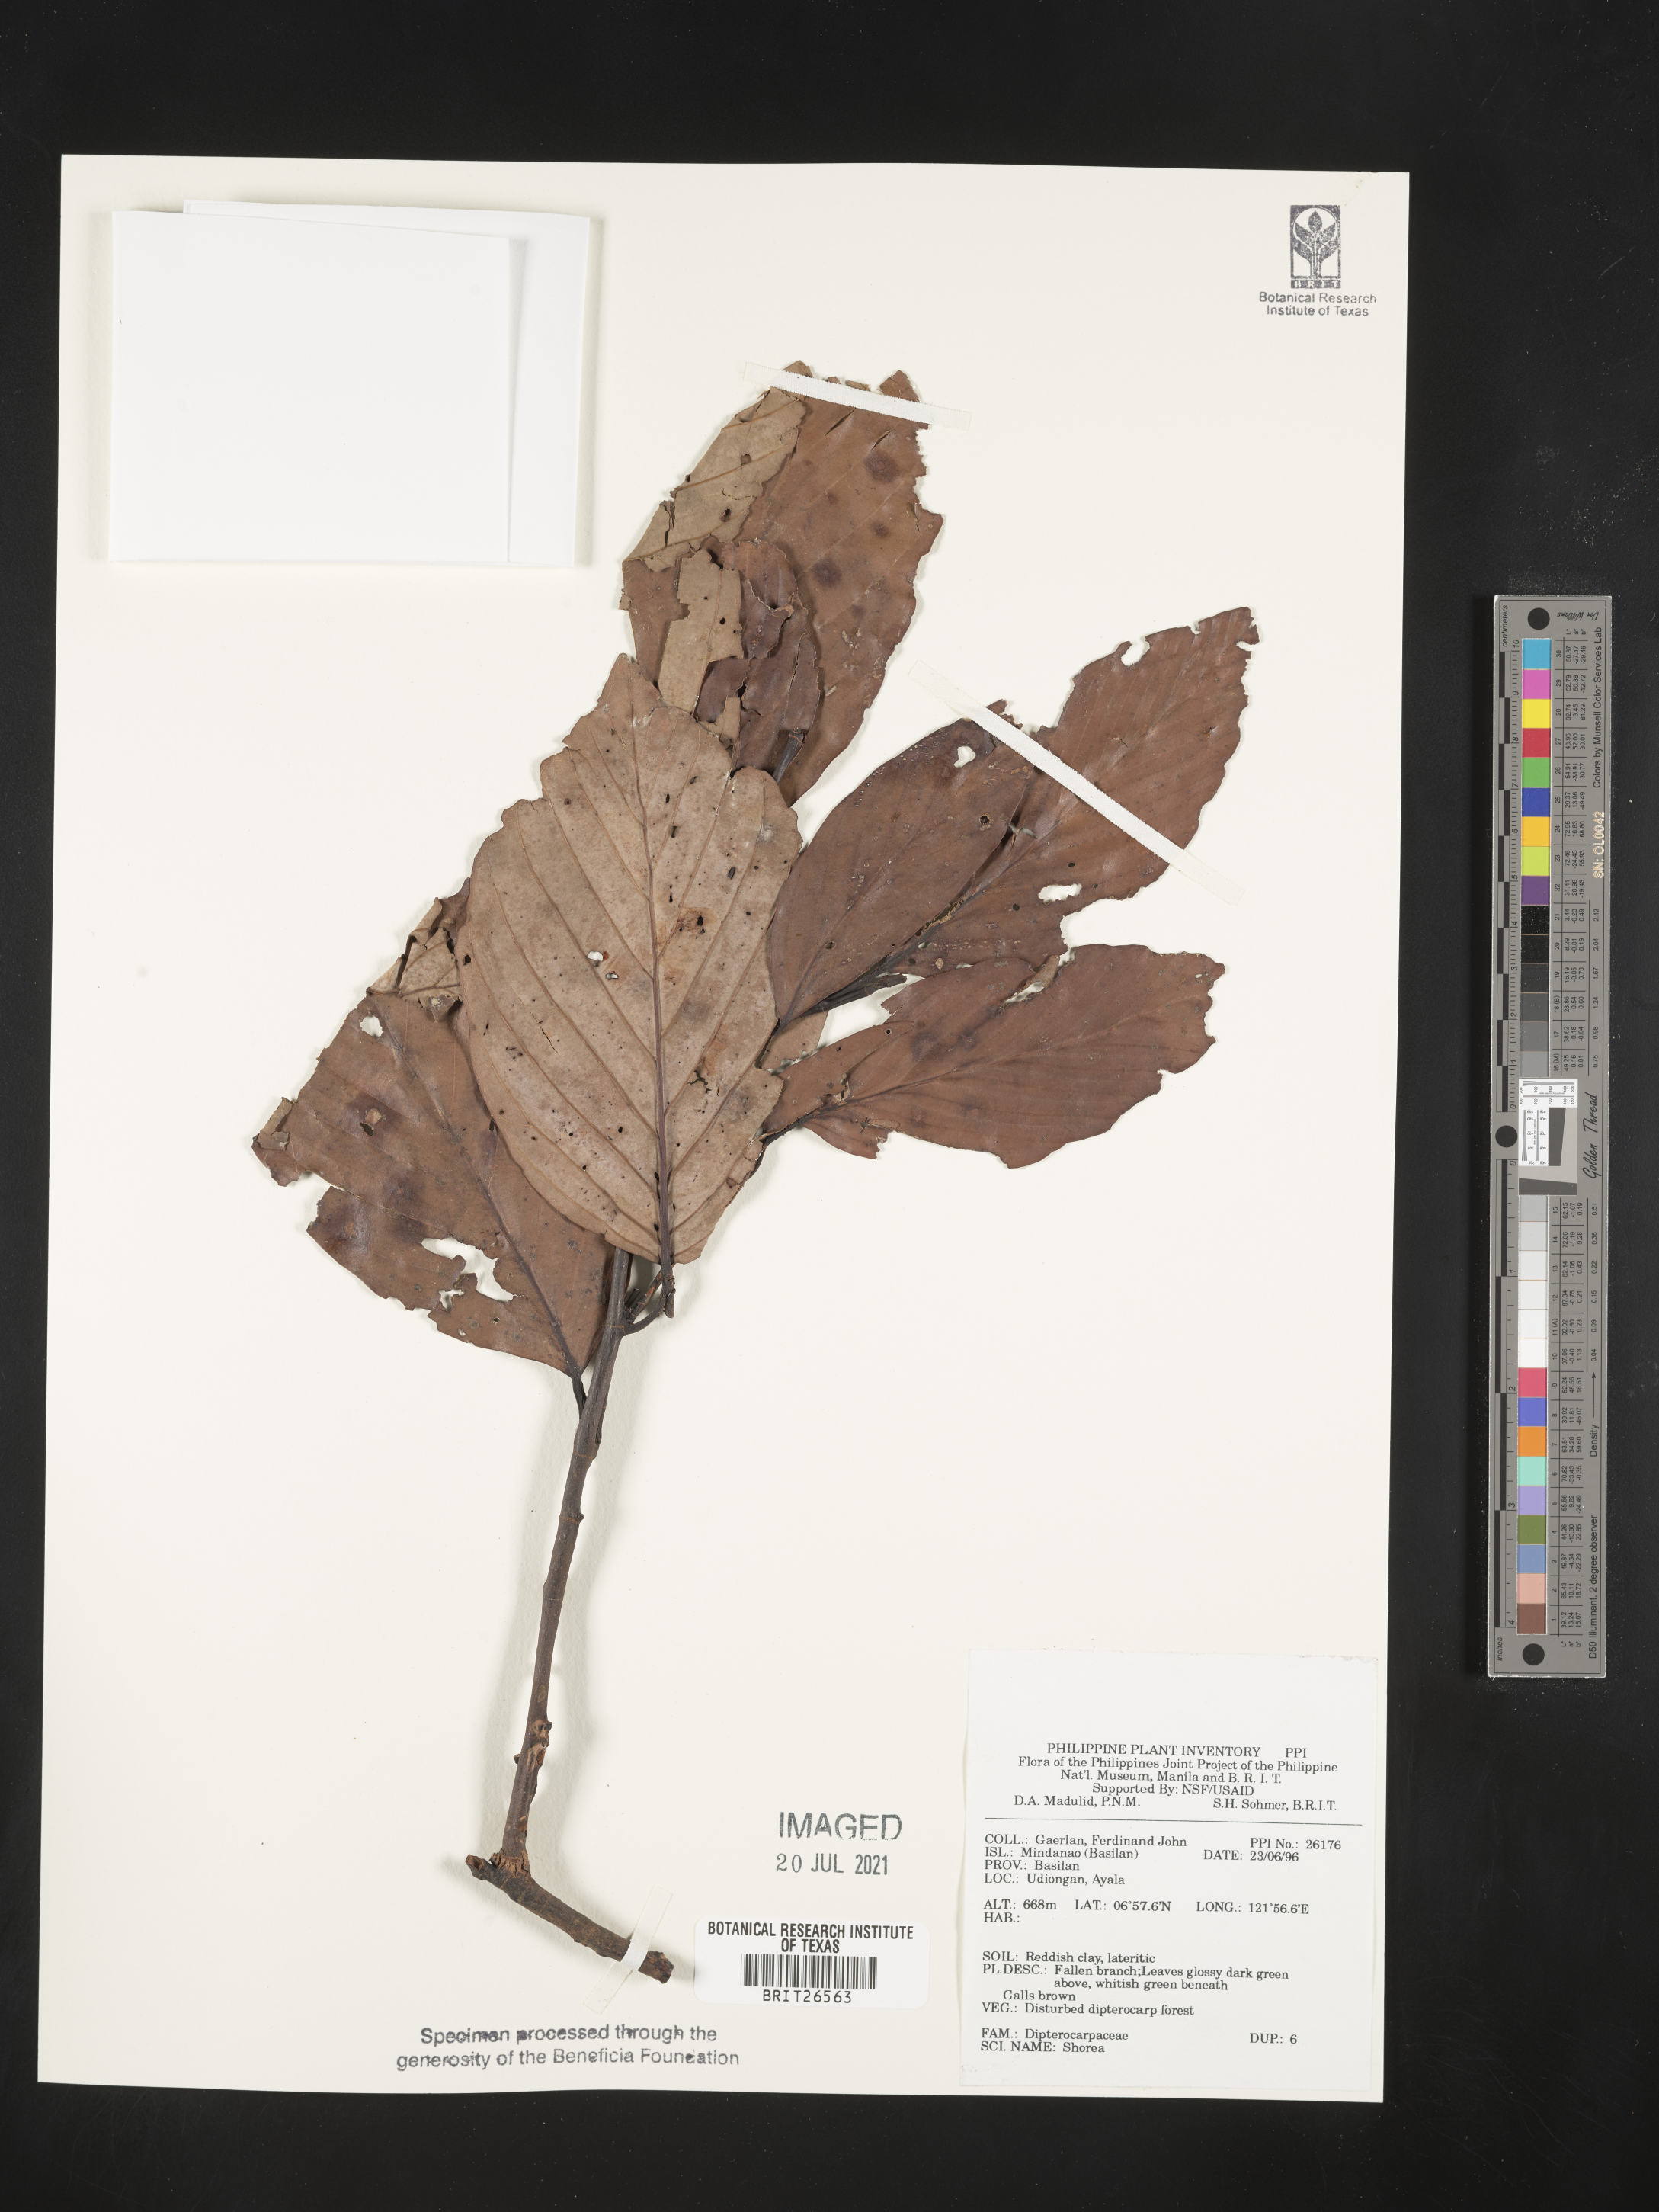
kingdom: Plantae
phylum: Tracheophyta
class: Magnoliopsida
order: Malvales
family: Dipterocarpaceae
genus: Shorea
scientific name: Shorea
